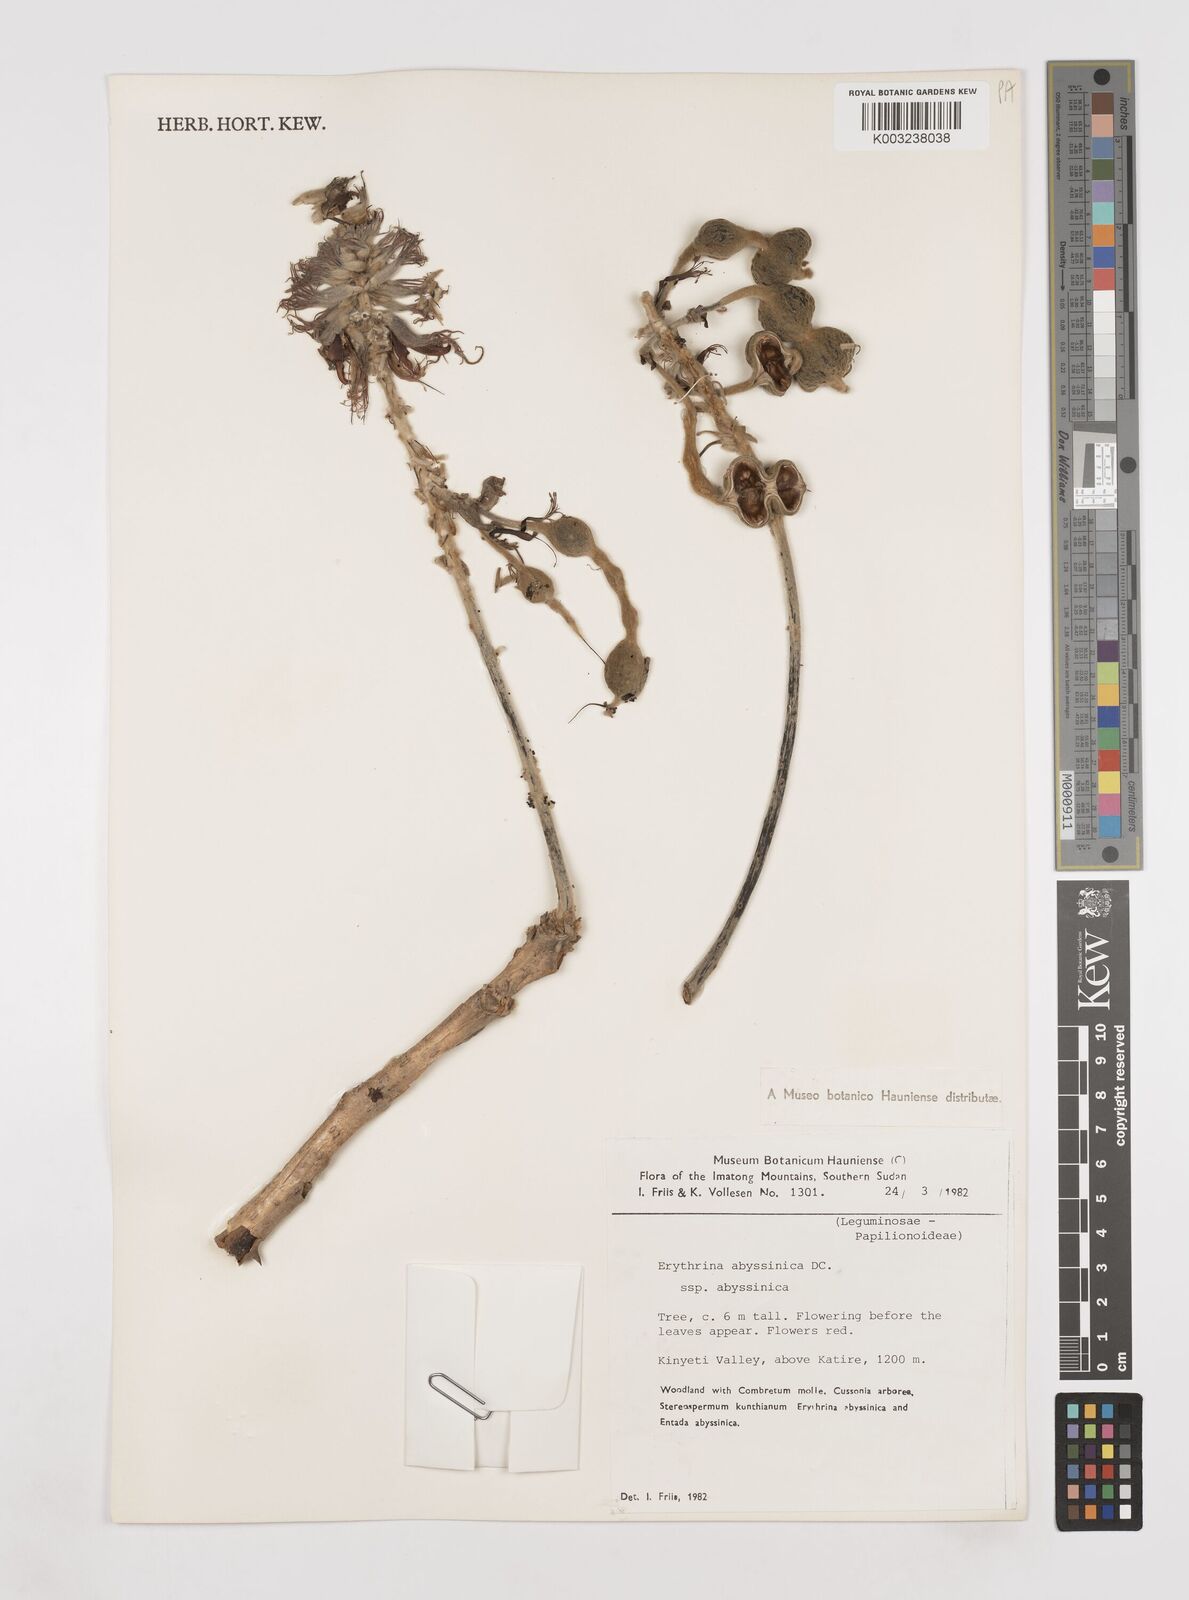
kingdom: Plantae
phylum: Tracheophyta
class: Magnoliopsida
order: Fabales
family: Fabaceae
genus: Erythrina
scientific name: Erythrina abyssinica
